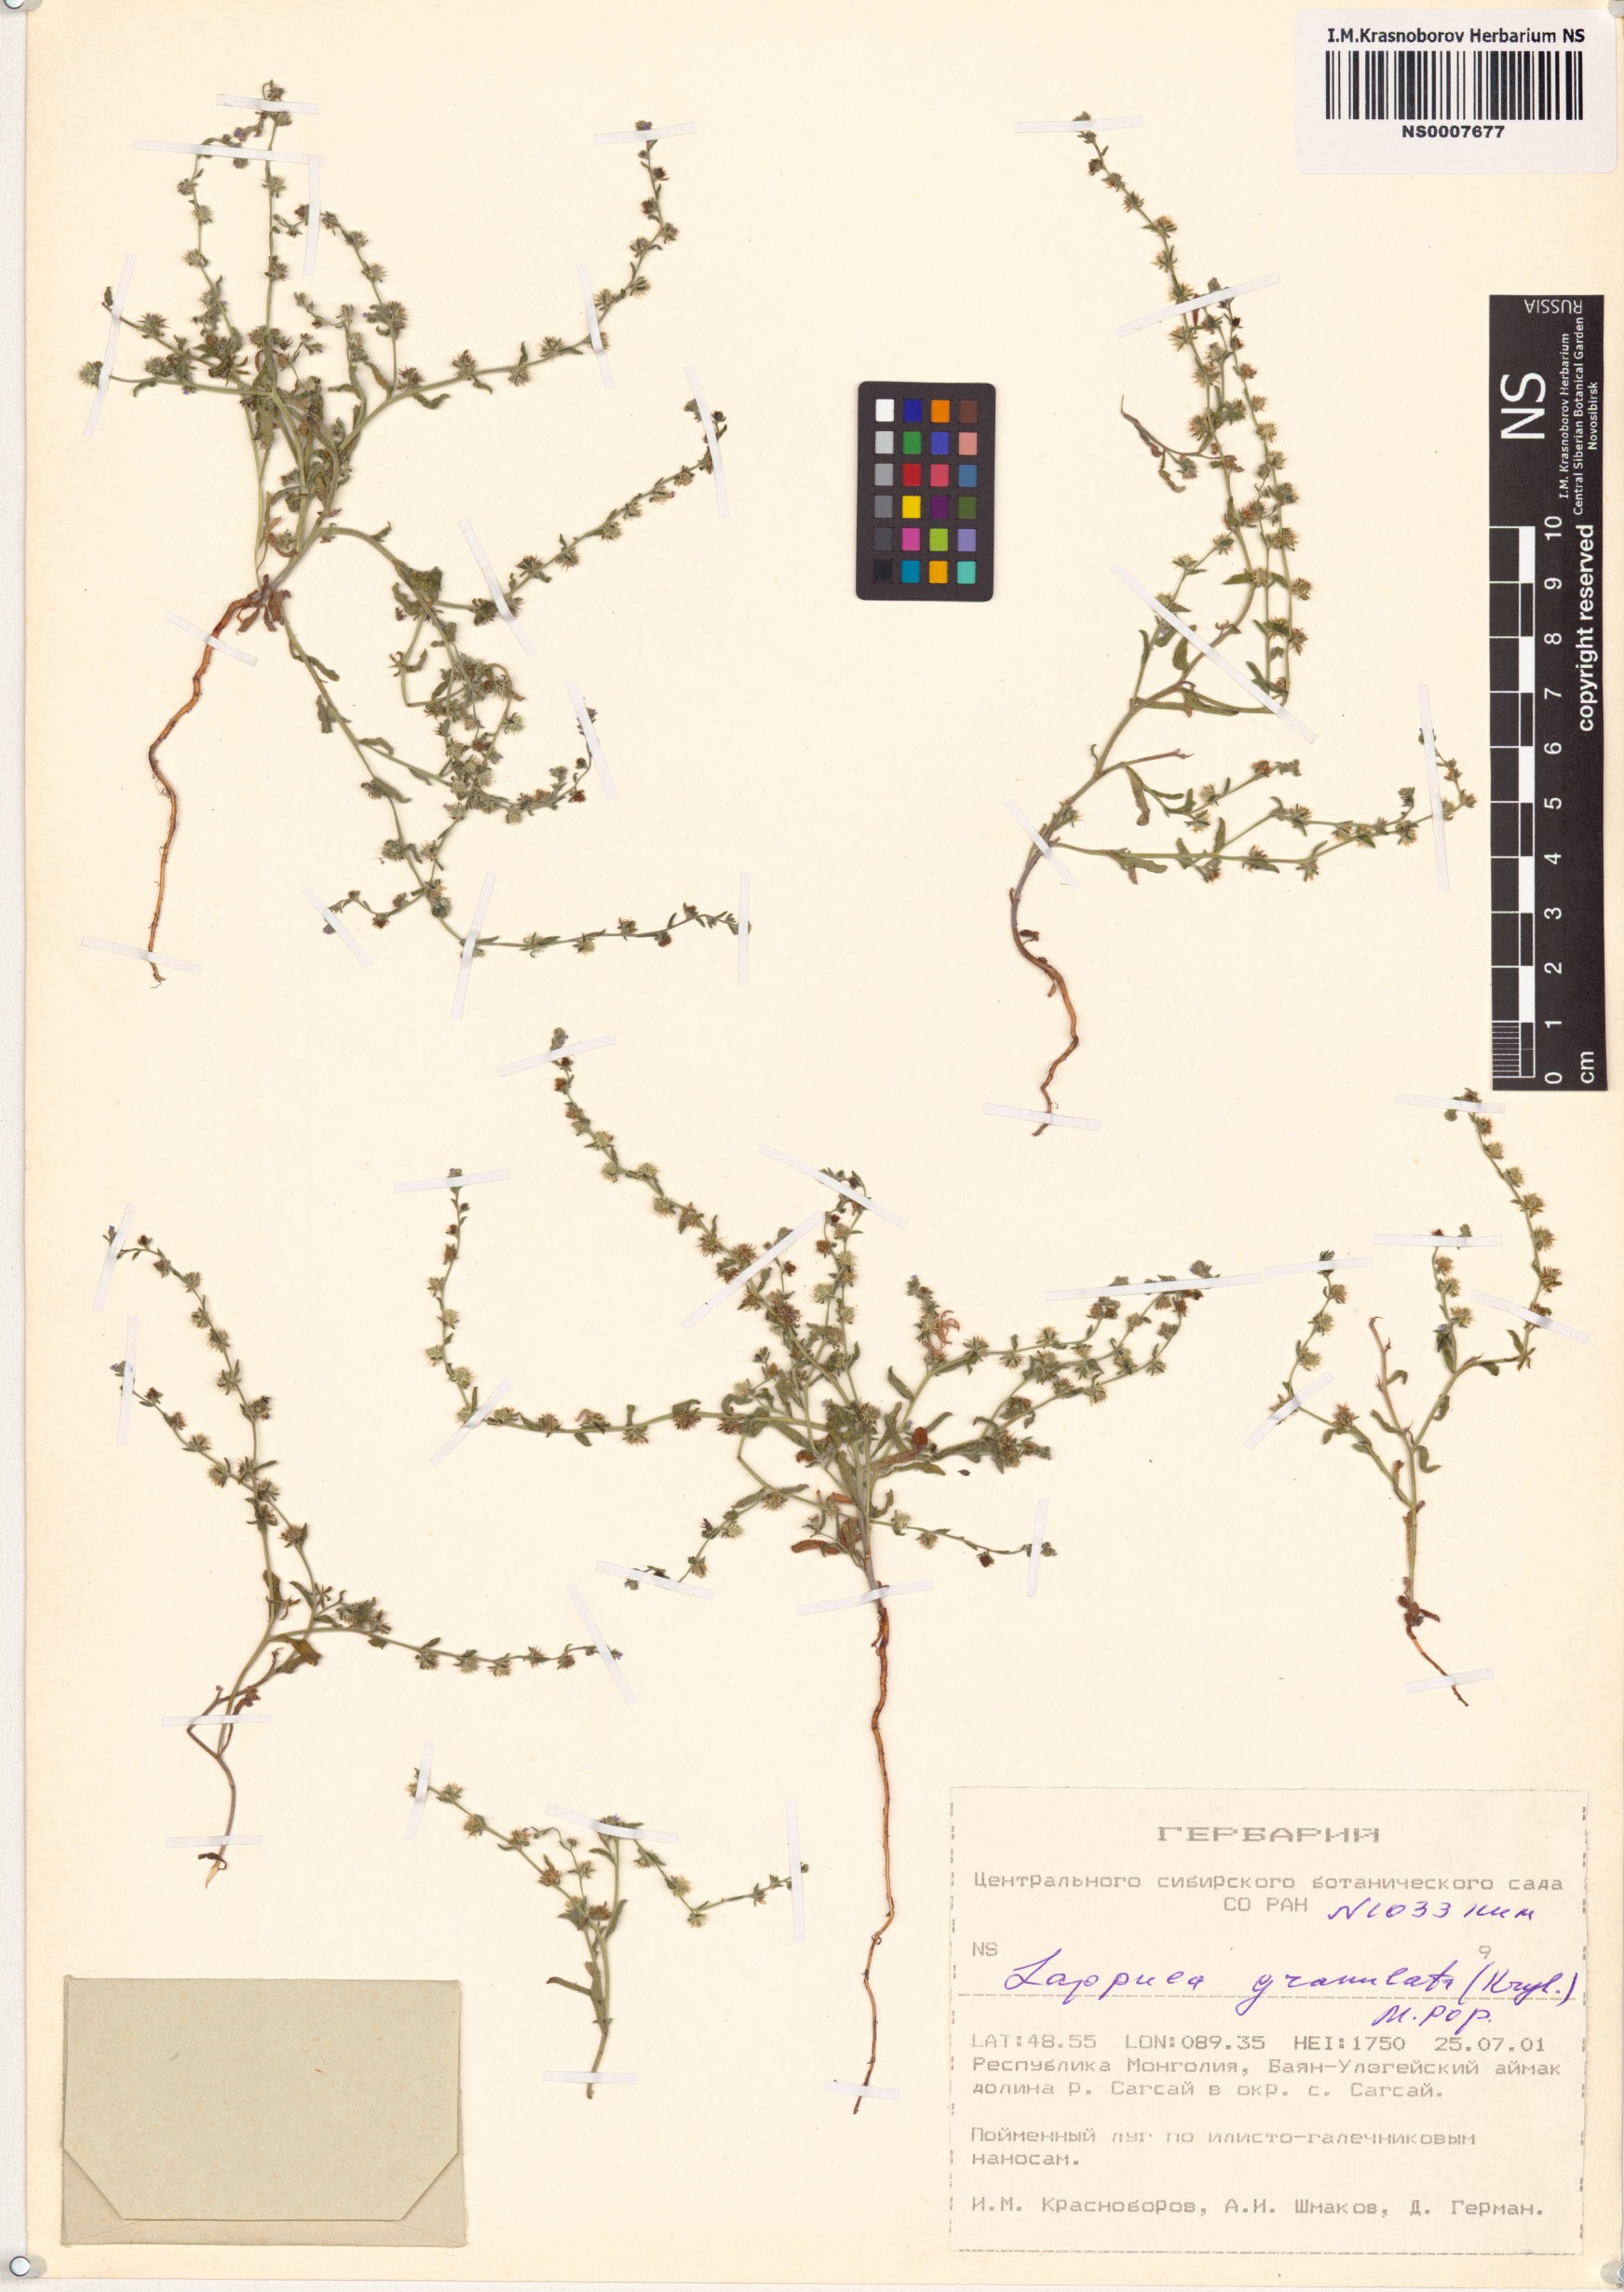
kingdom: Plantae
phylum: Tracheophyta
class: Magnoliopsida
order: Boraginales
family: Boraginaceae
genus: Lappula
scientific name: Lappula granulata
